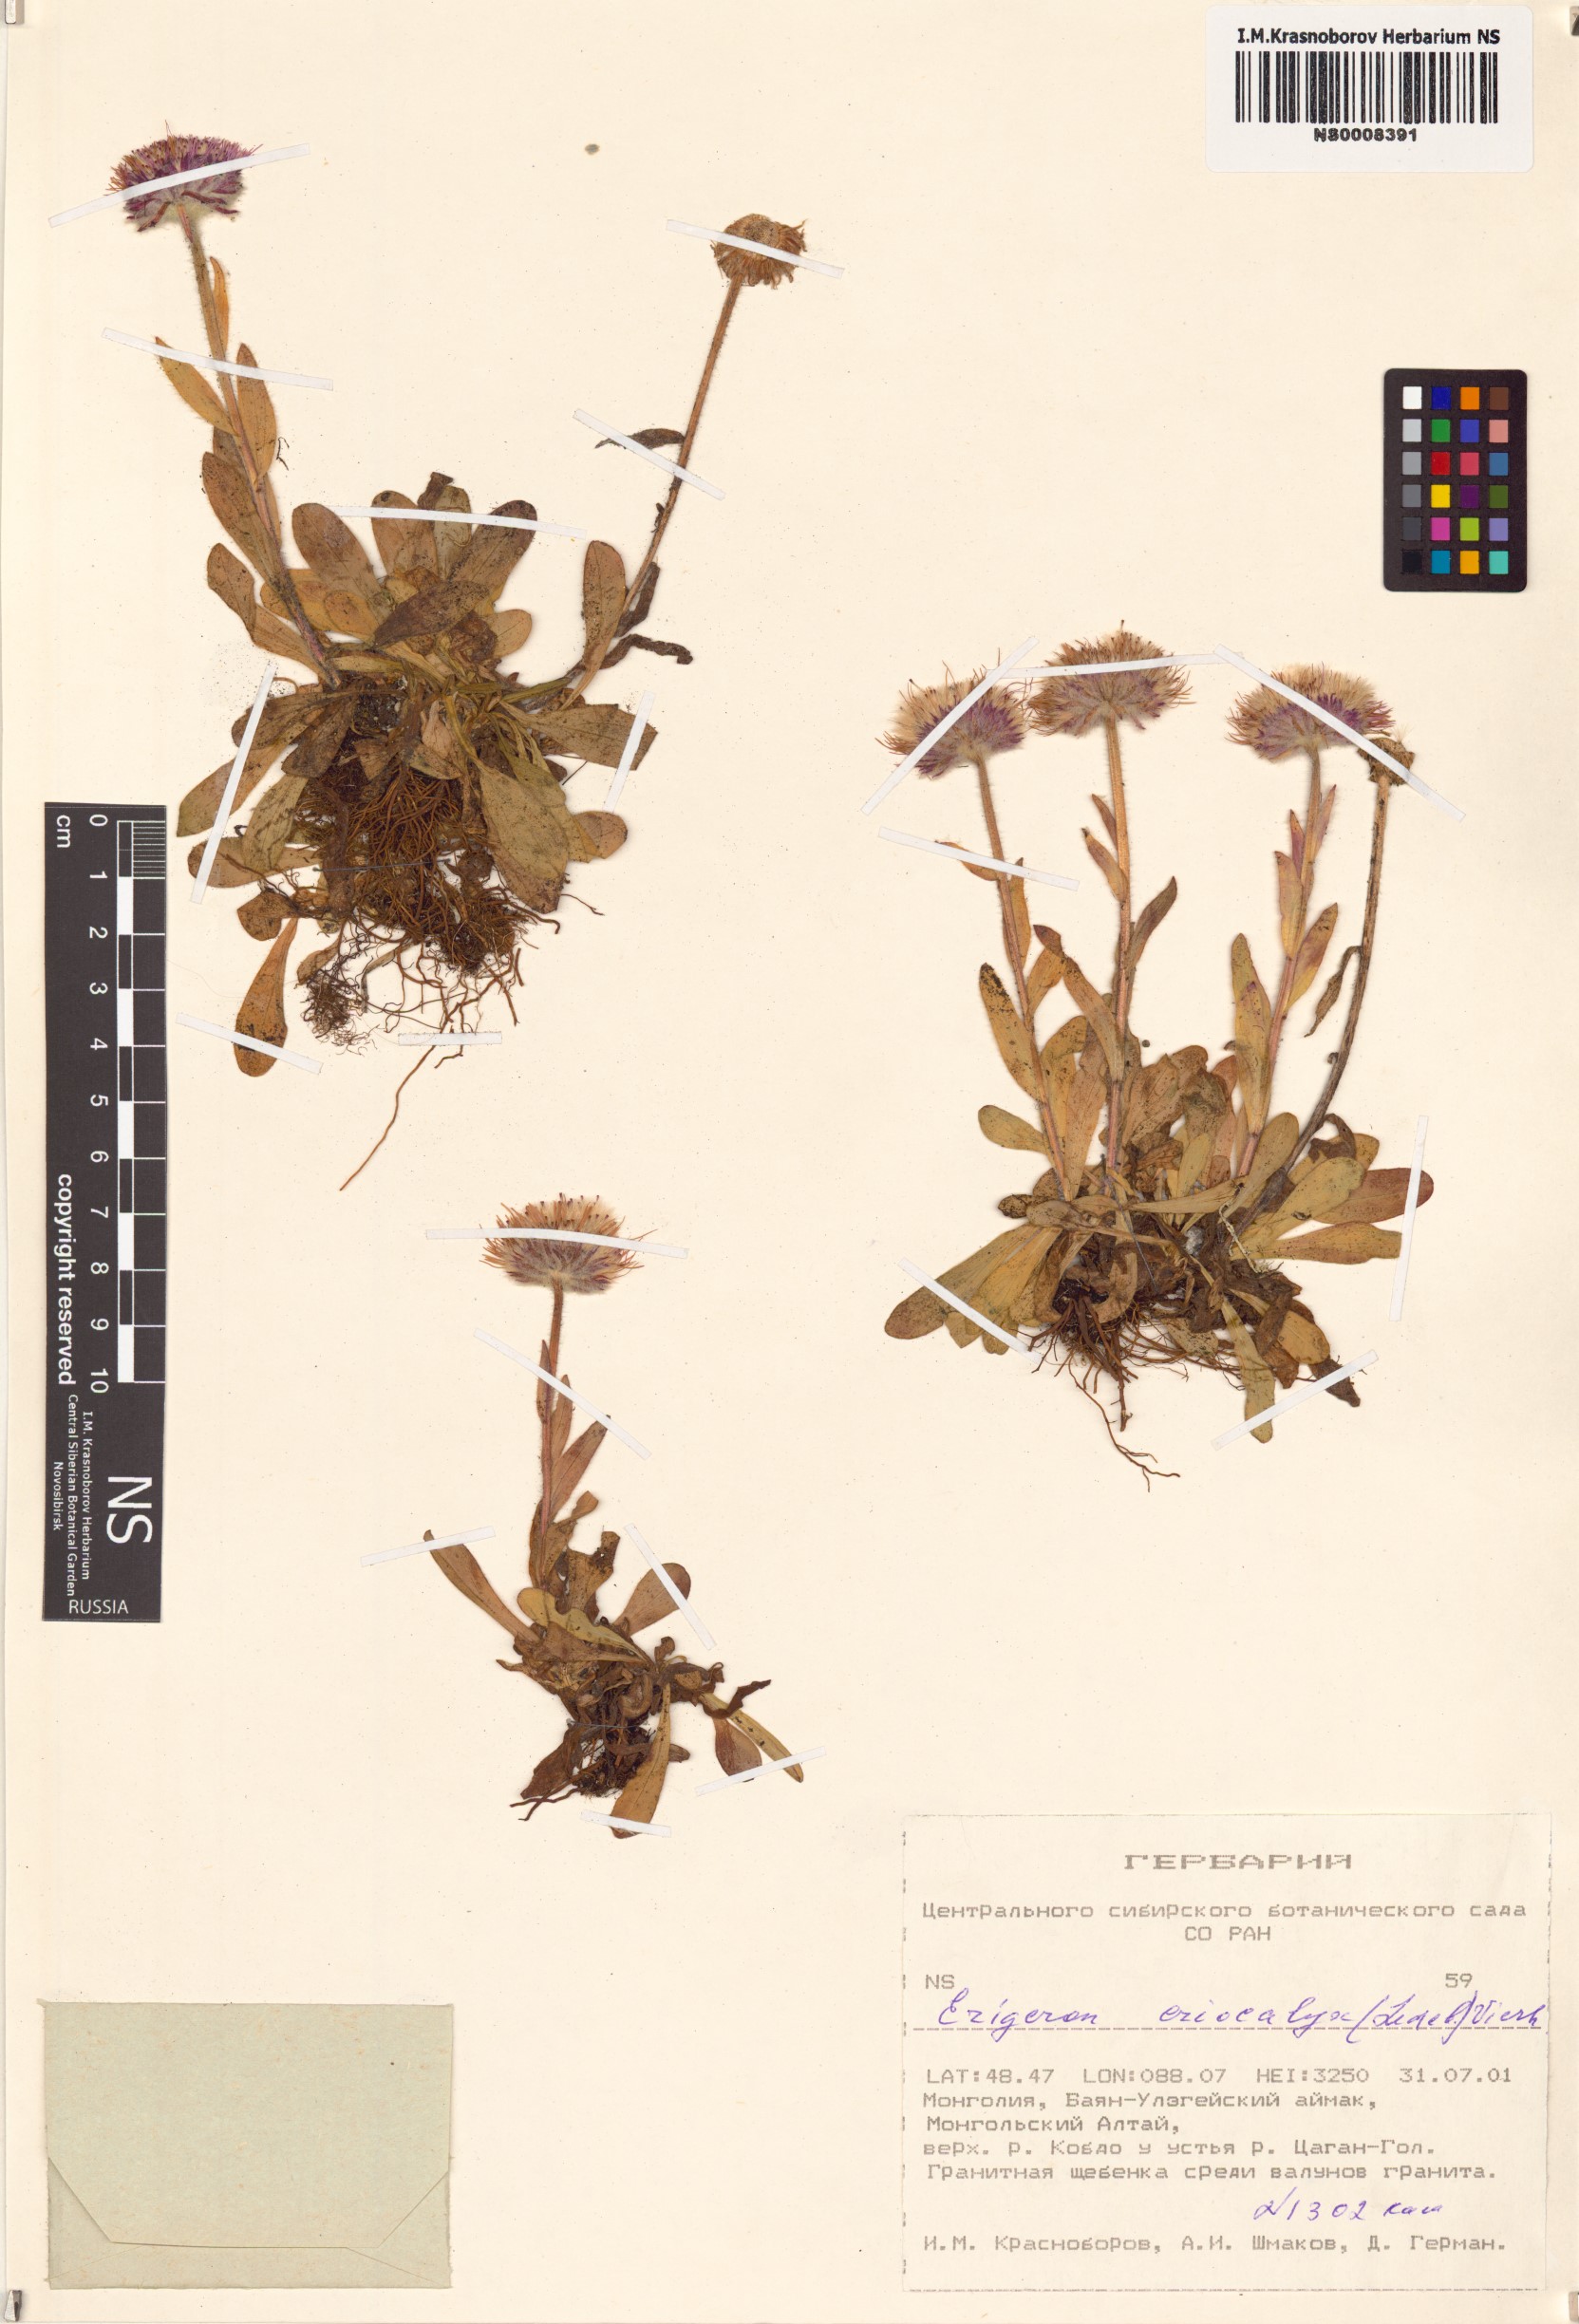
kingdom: Plantae
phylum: Tracheophyta
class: Magnoliopsida
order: Asterales
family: Asteraceae
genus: Erigeron
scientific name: Erigeron eriocalyx
